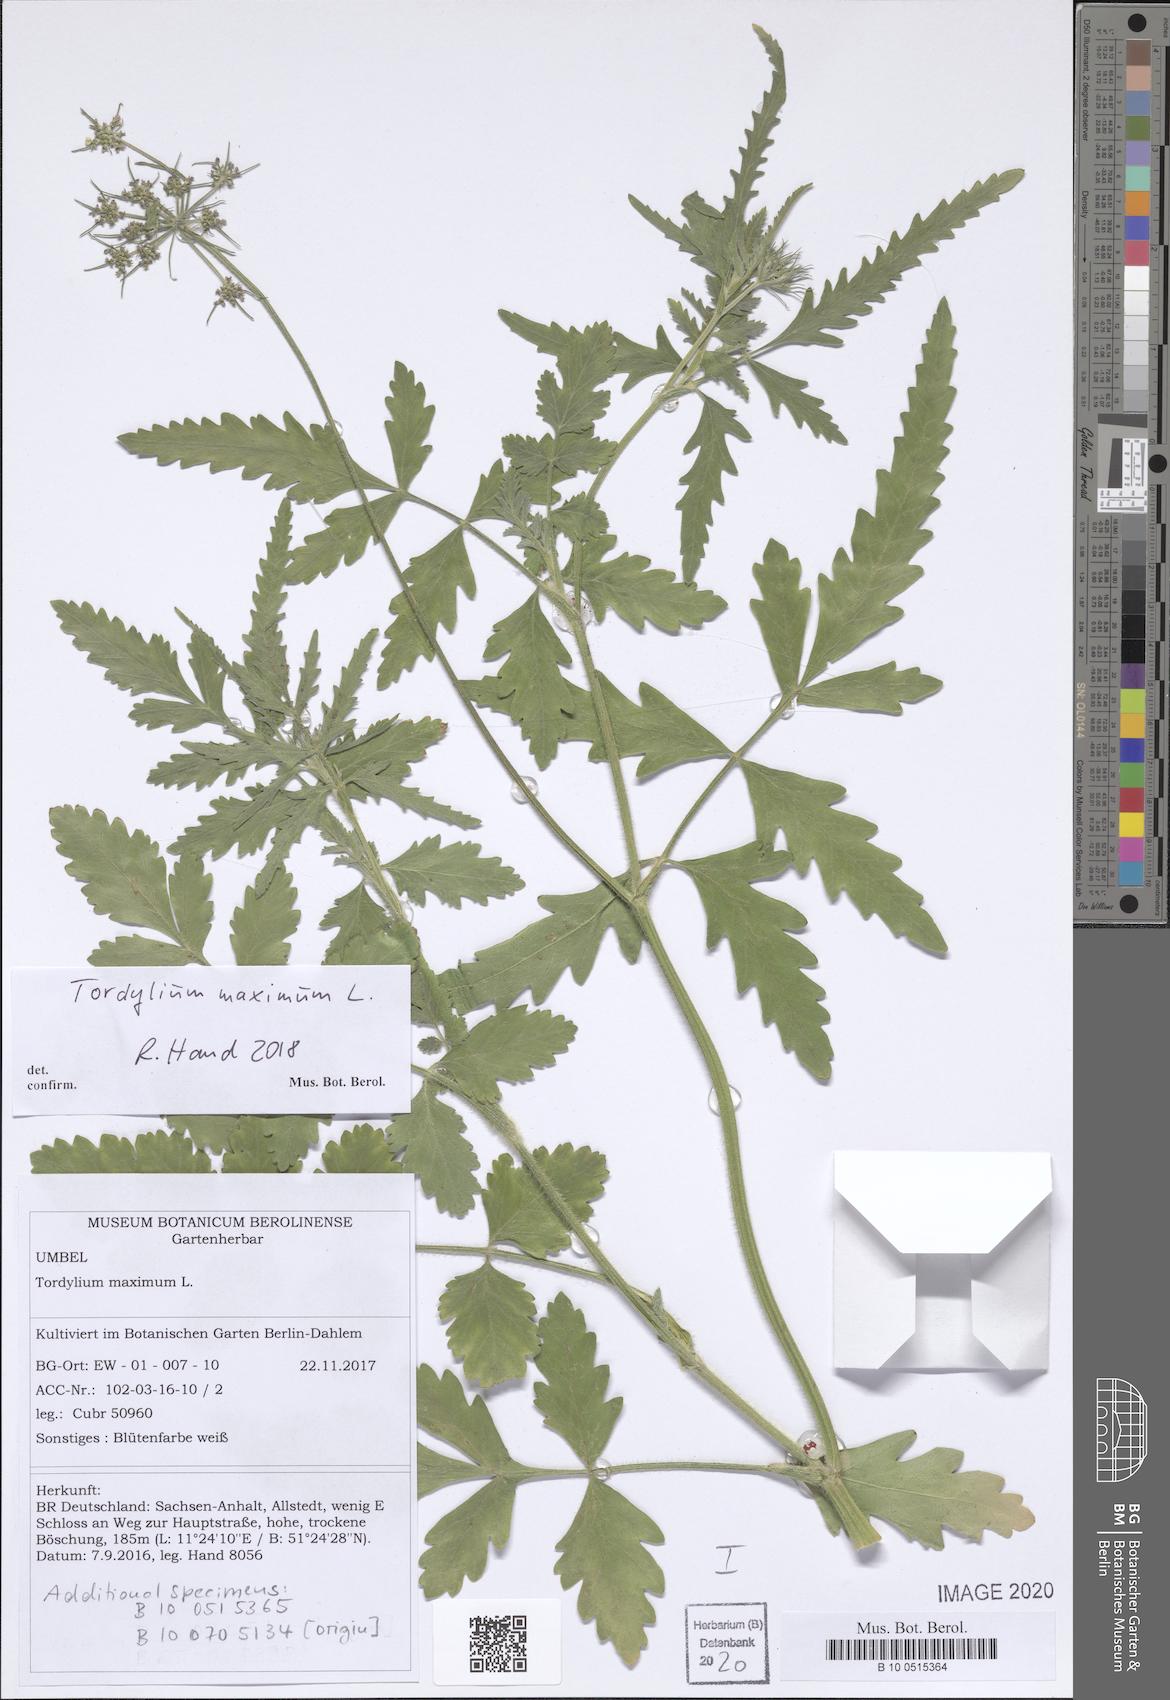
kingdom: Plantae
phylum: Tracheophyta
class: Magnoliopsida
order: Apiales
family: Apiaceae
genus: Tordylium
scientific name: Tordylium maximum
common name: Hartwort
